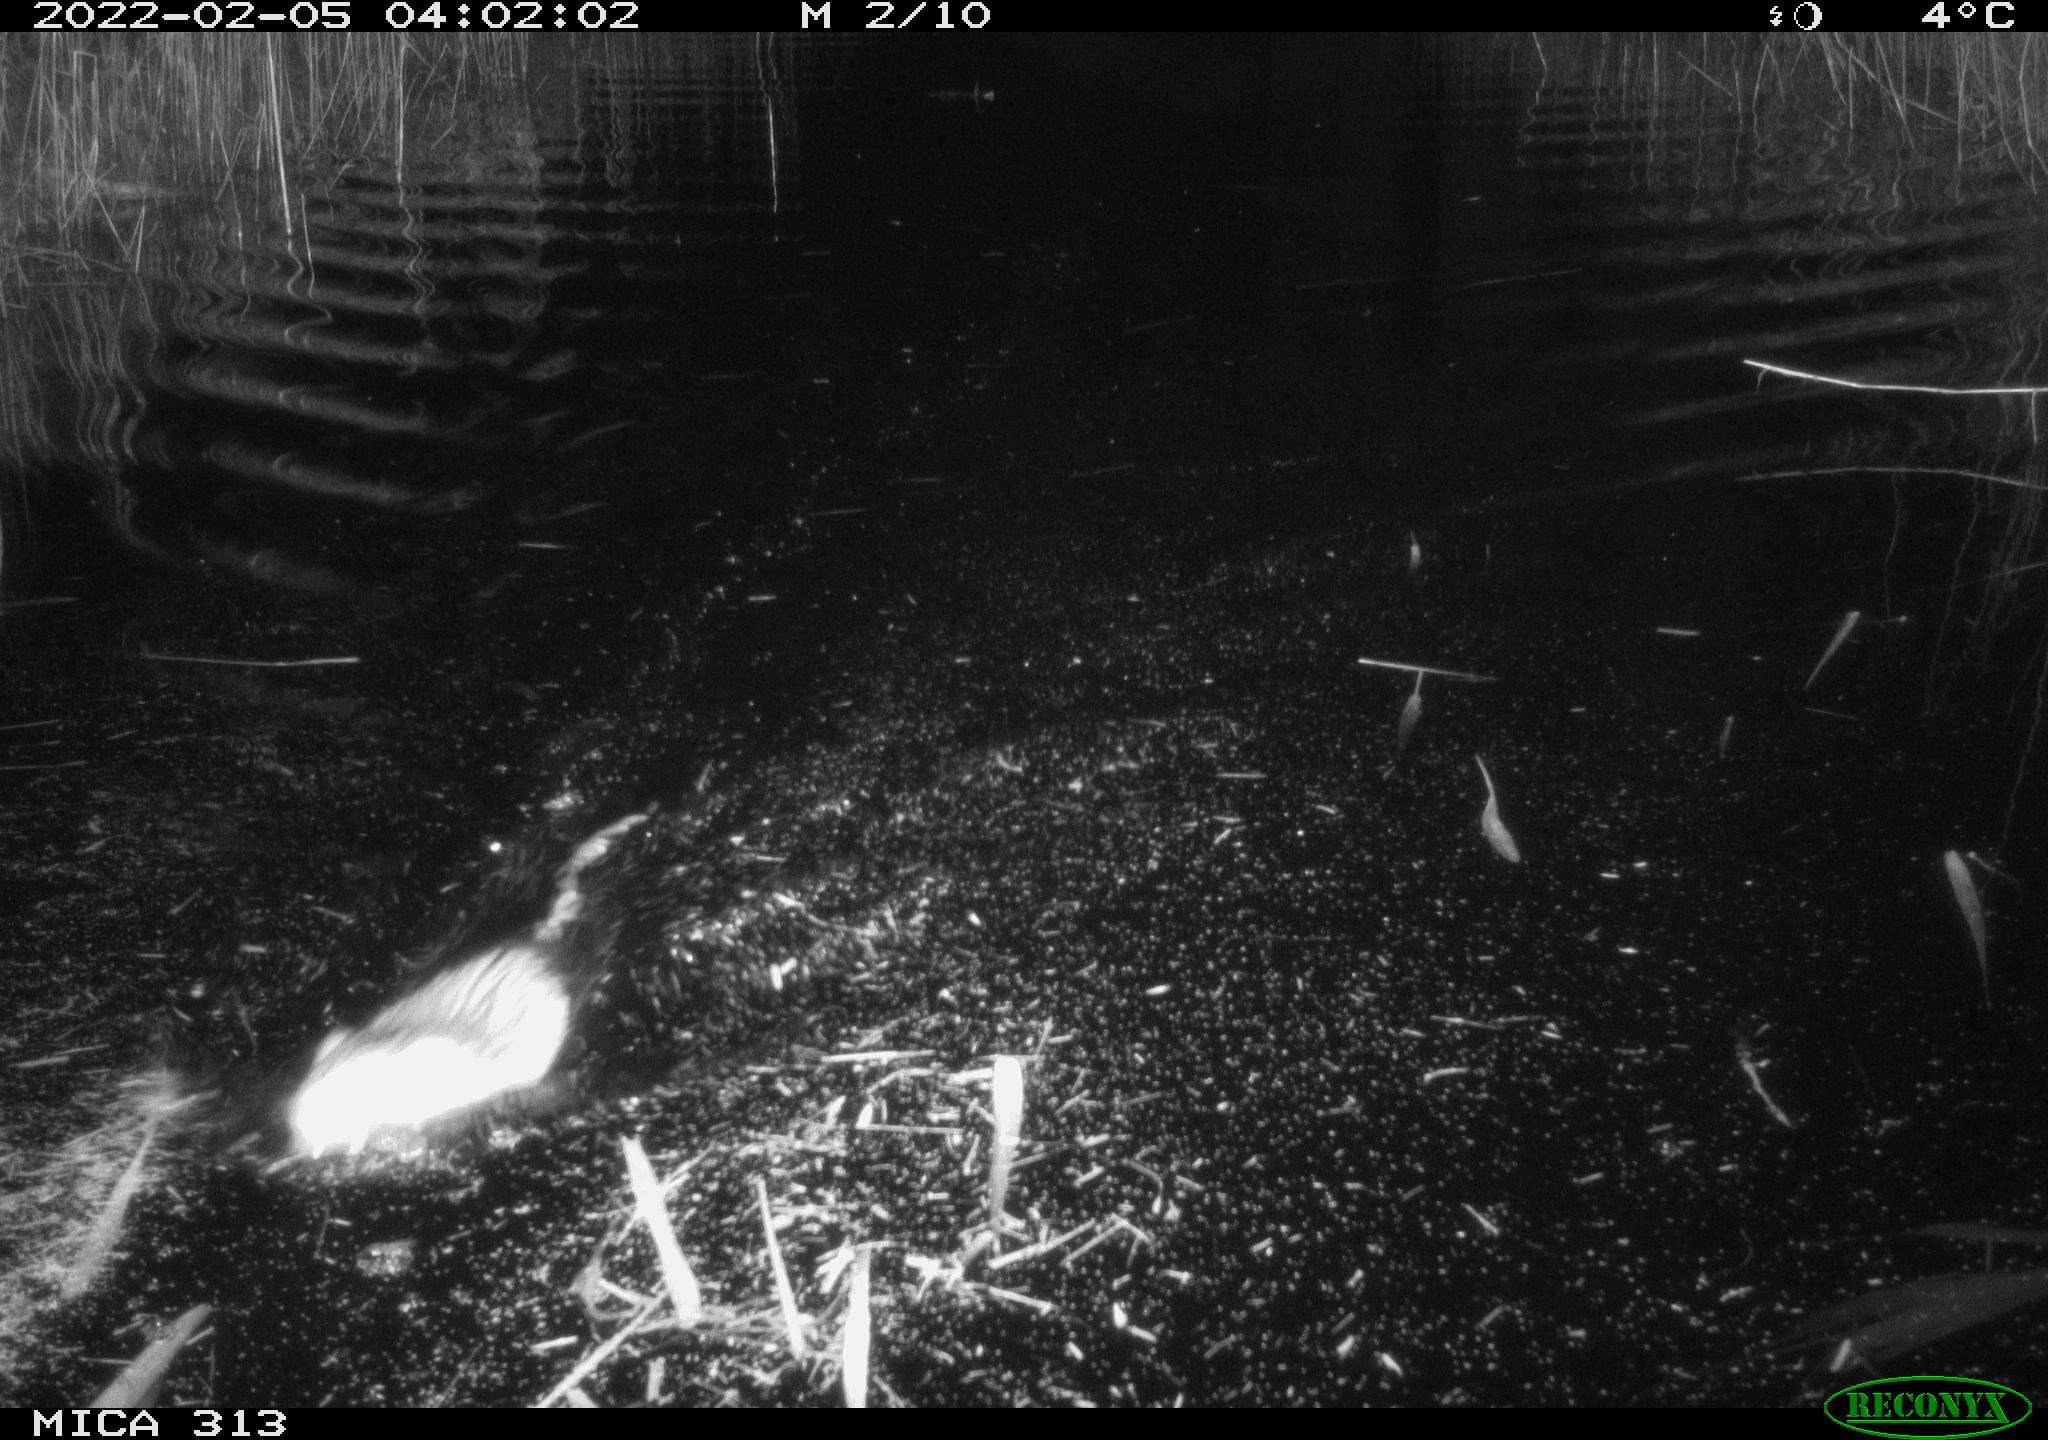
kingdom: Animalia
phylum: Chordata
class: Mammalia
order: Rodentia
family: Cricetidae
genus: Ondatra
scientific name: Ondatra zibethicus
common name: Muskrat
